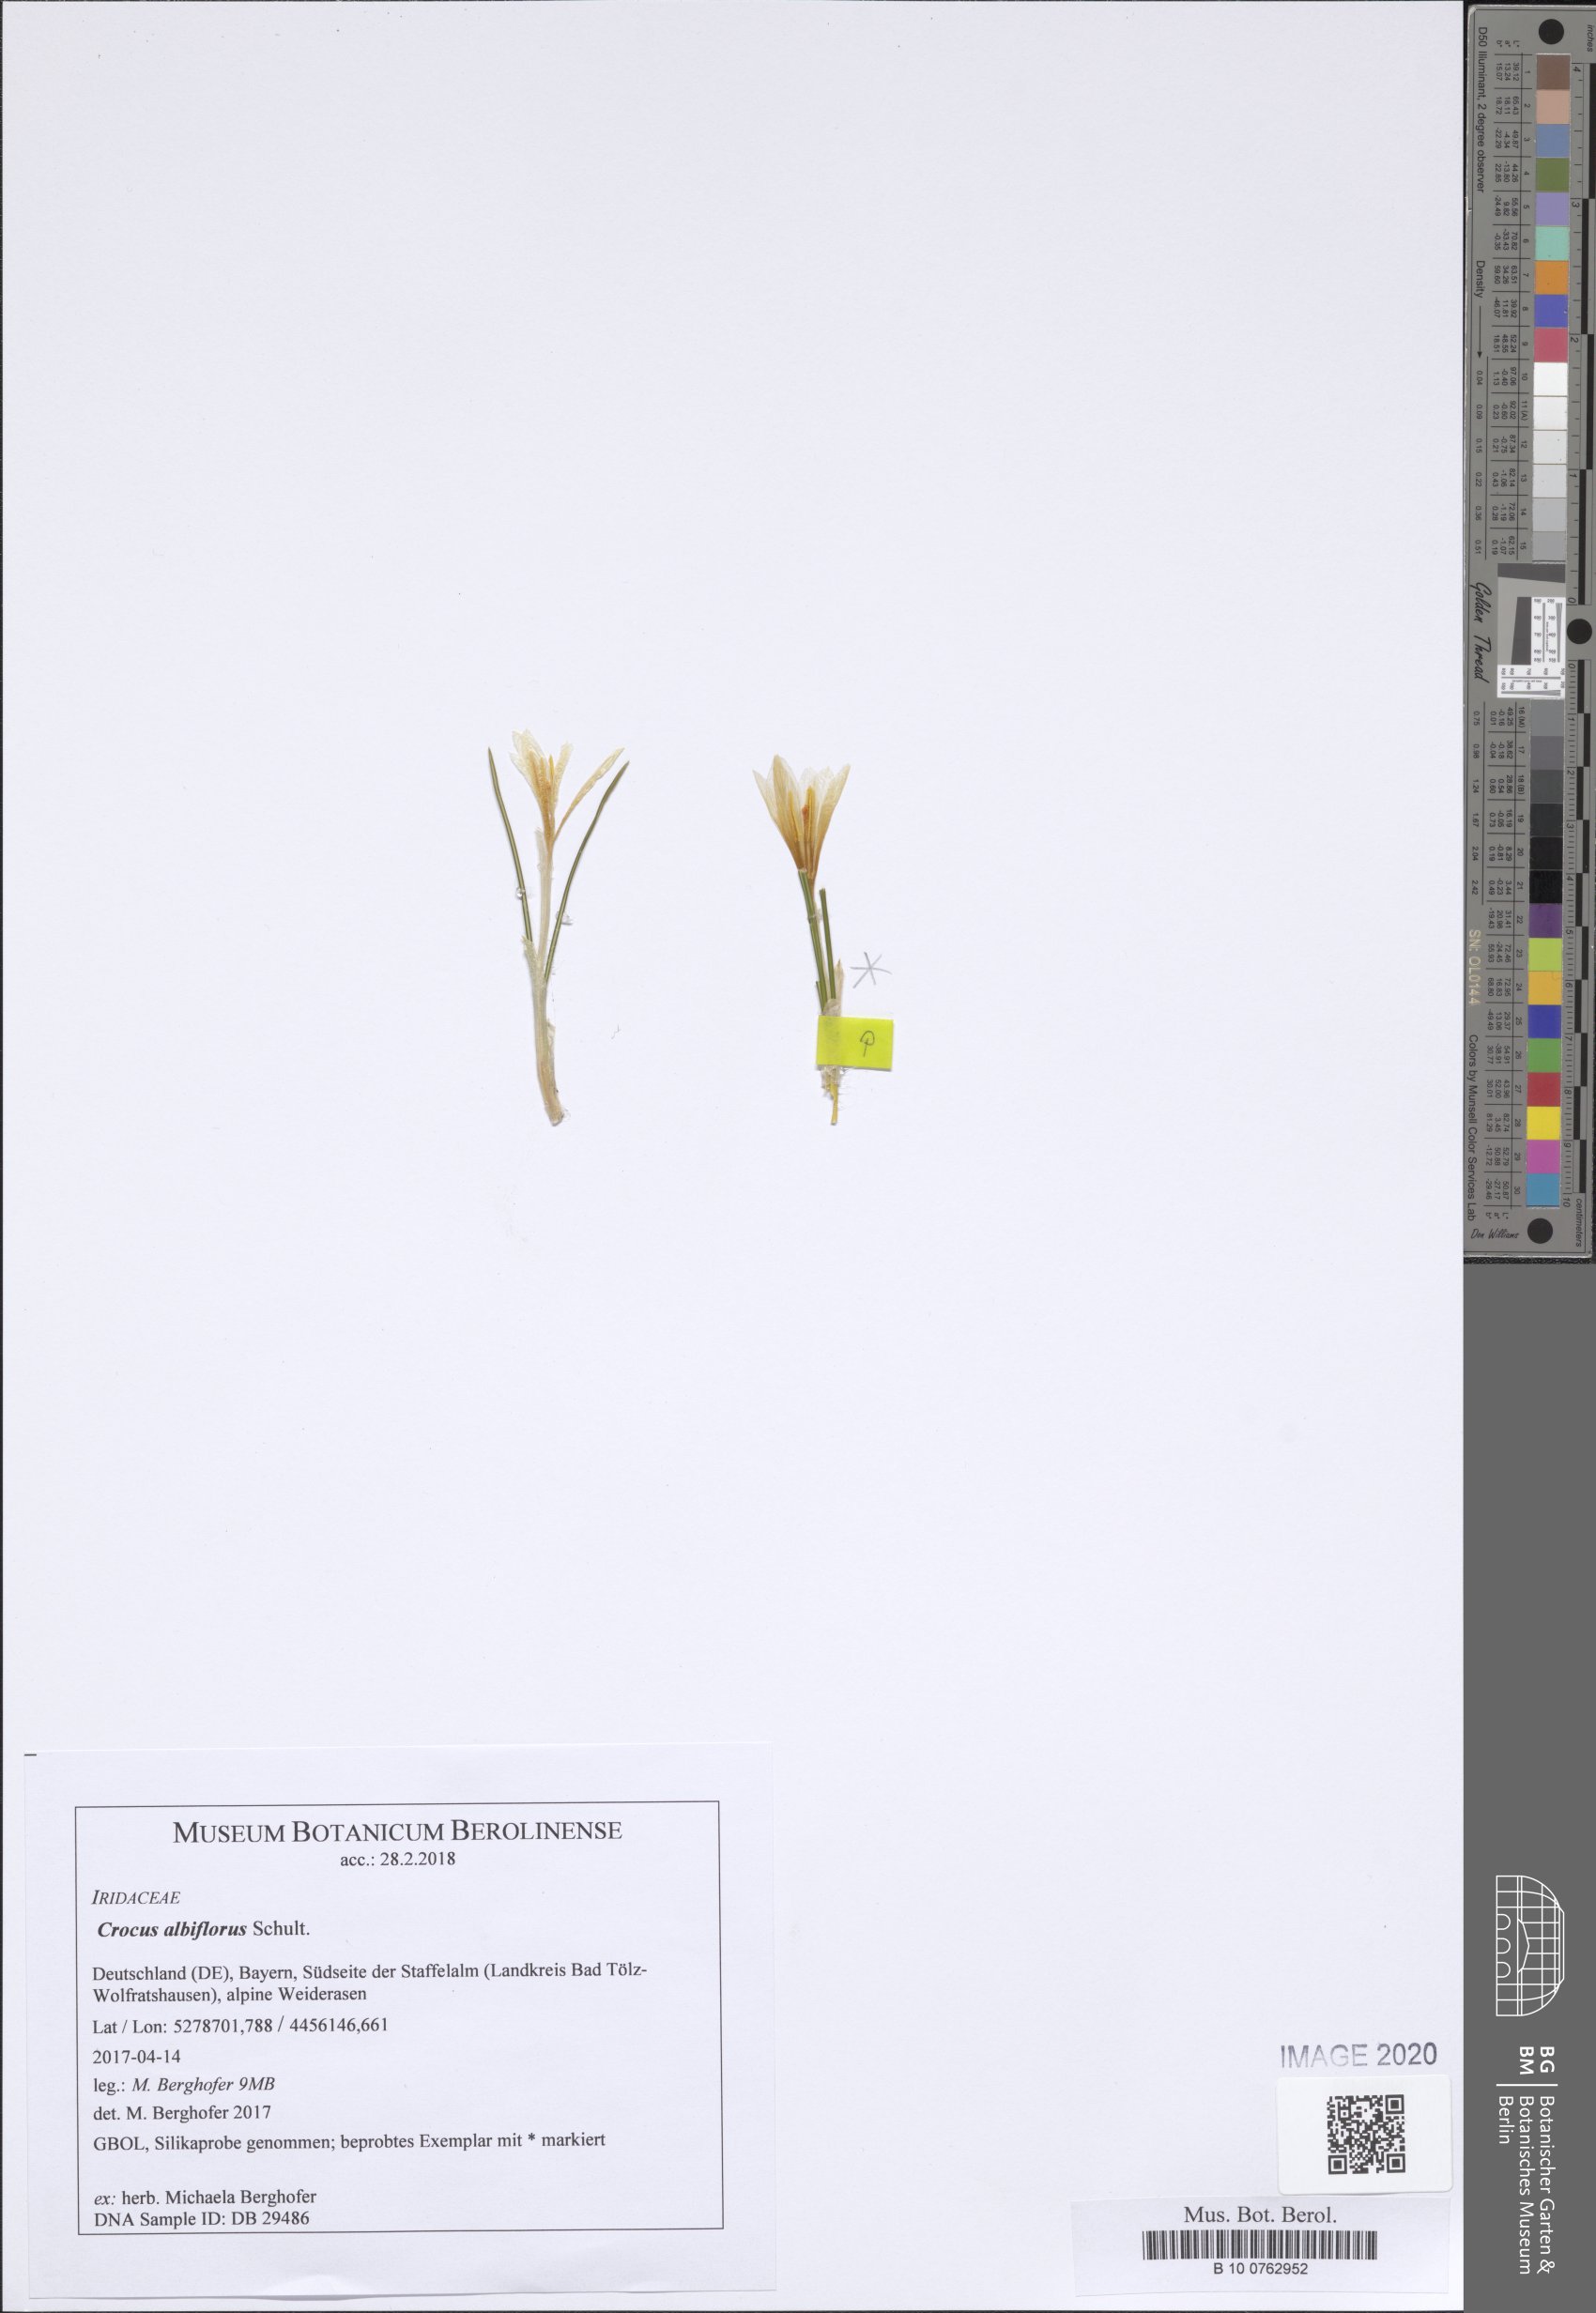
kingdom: Plantae
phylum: Tracheophyta
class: Liliopsida
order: Asparagales
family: Iridaceae
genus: Crocus
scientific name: Crocus vernus
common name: Spring crocus
